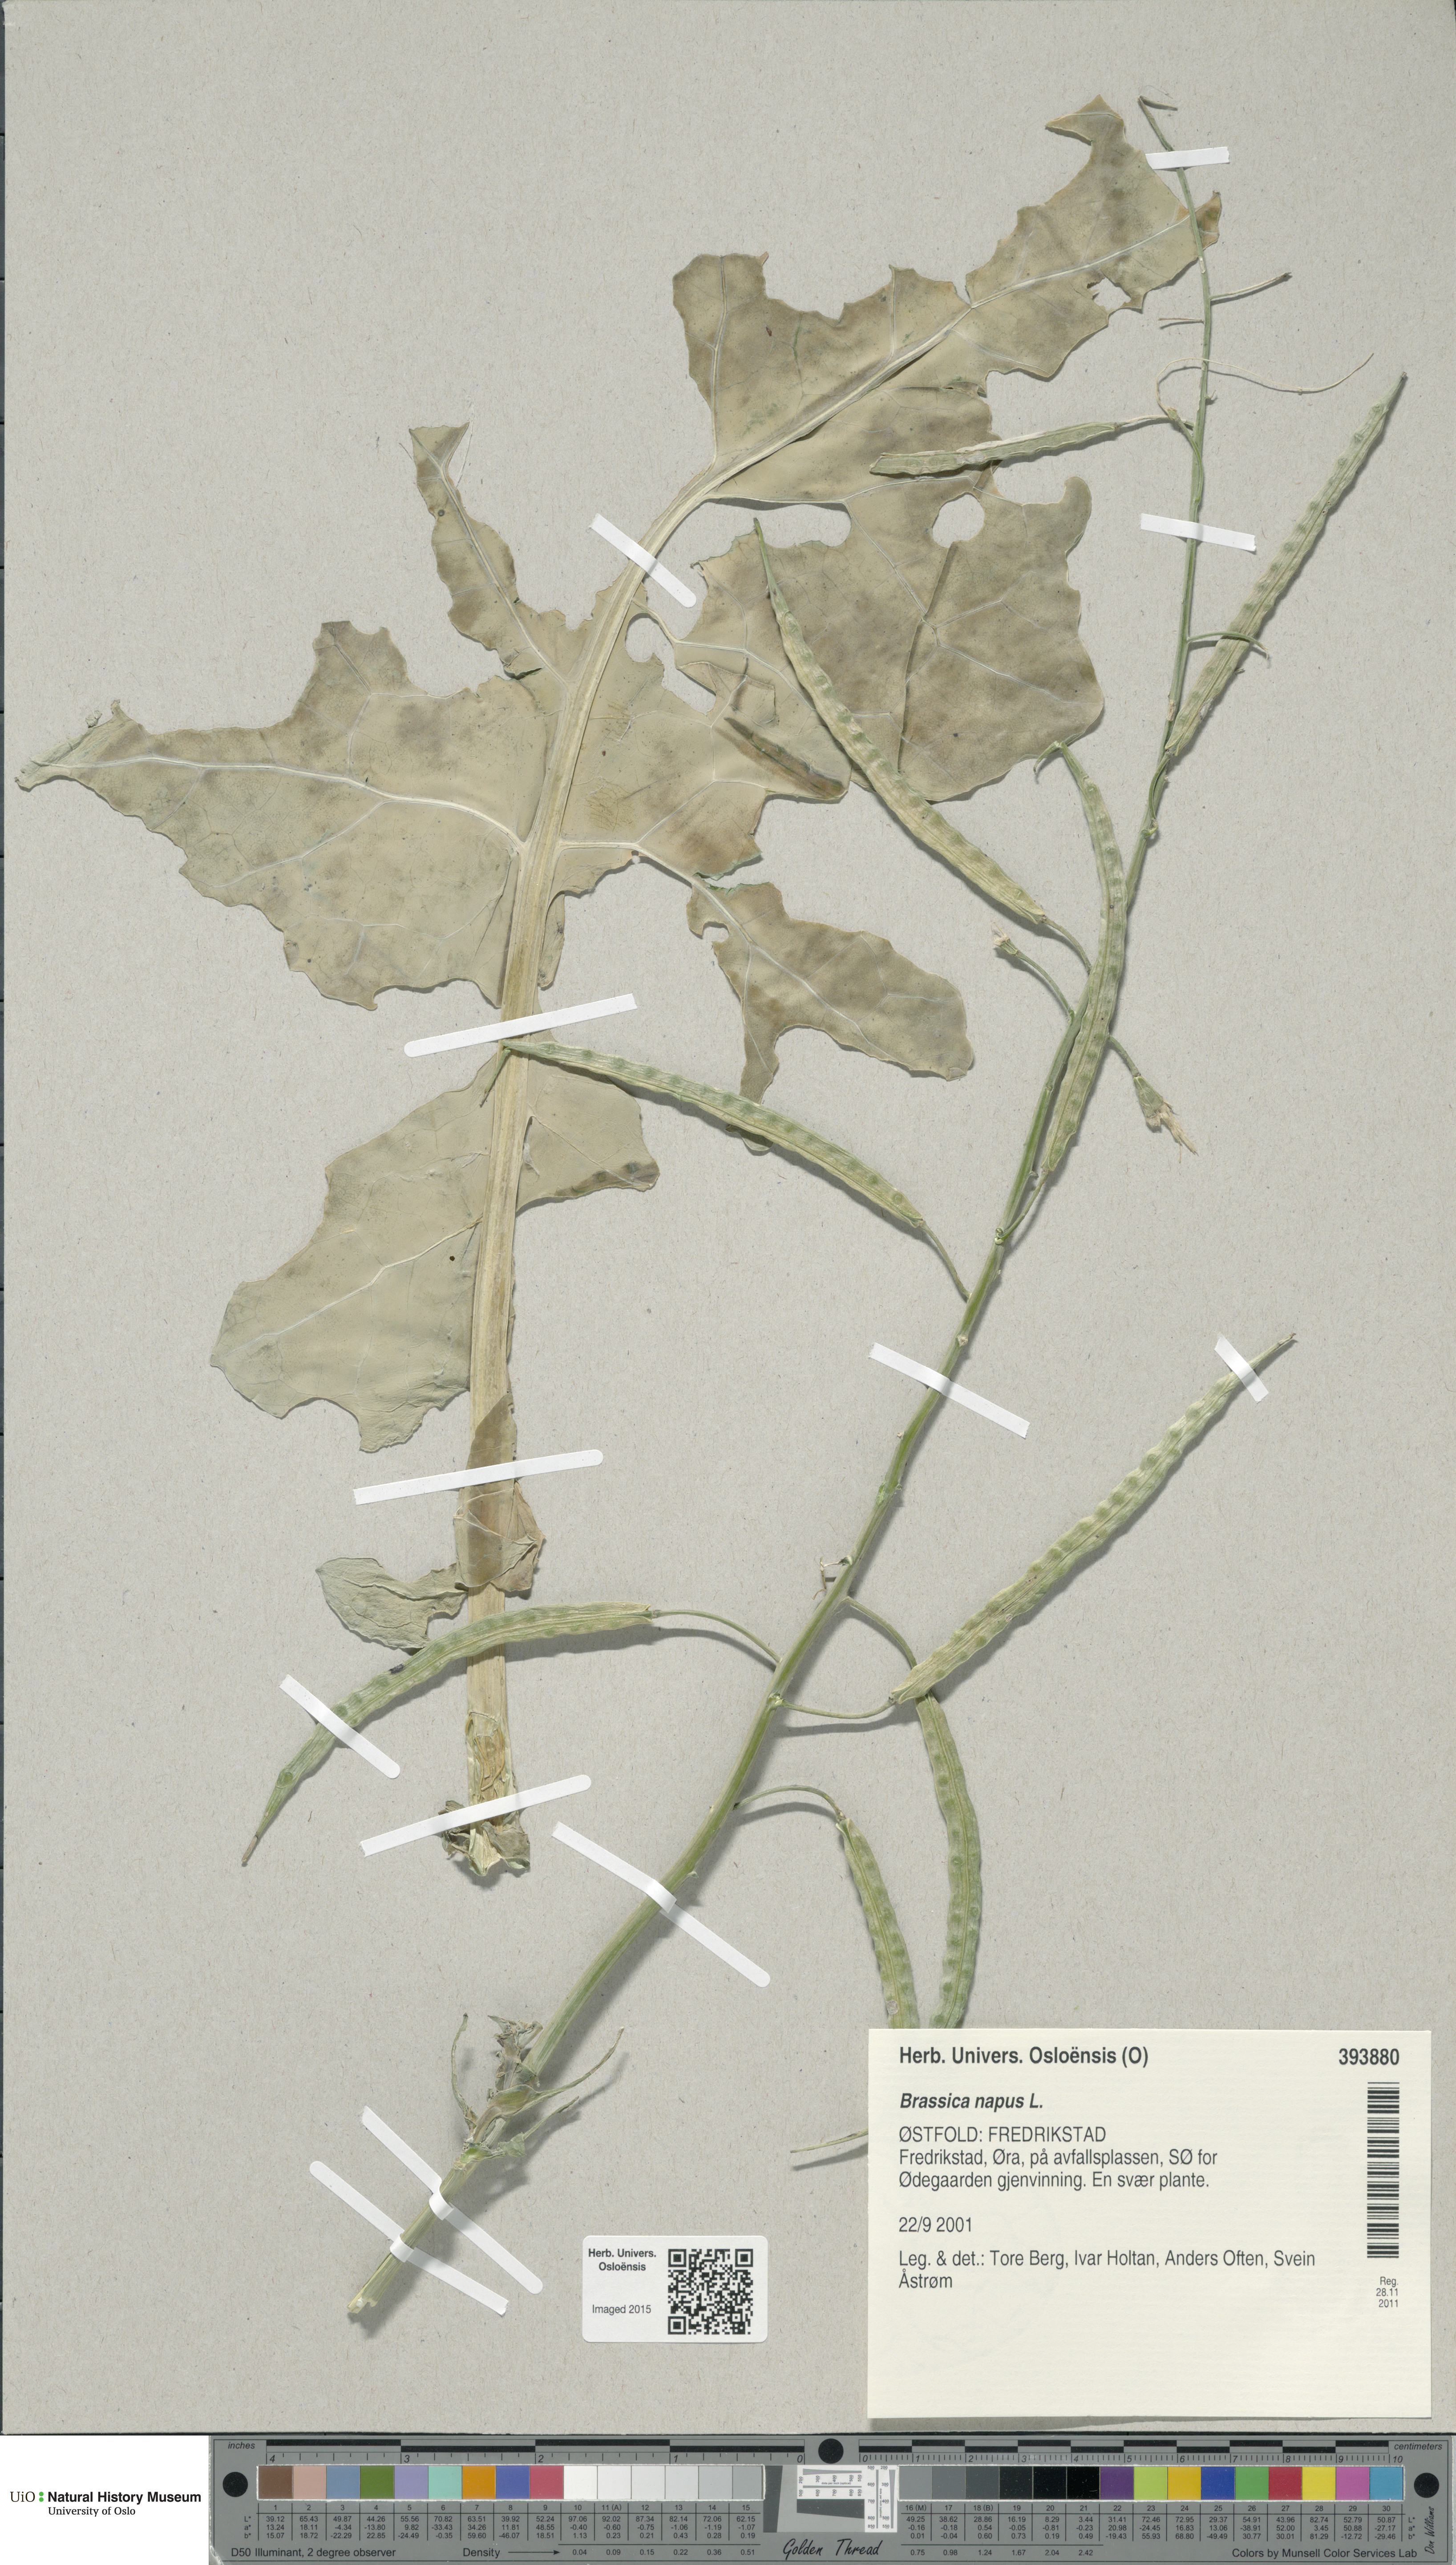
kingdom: Plantae
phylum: Tracheophyta
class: Magnoliopsida
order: Brassicales
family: Brassicaceae
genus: Brassica
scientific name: Brassica napus
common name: Rape
